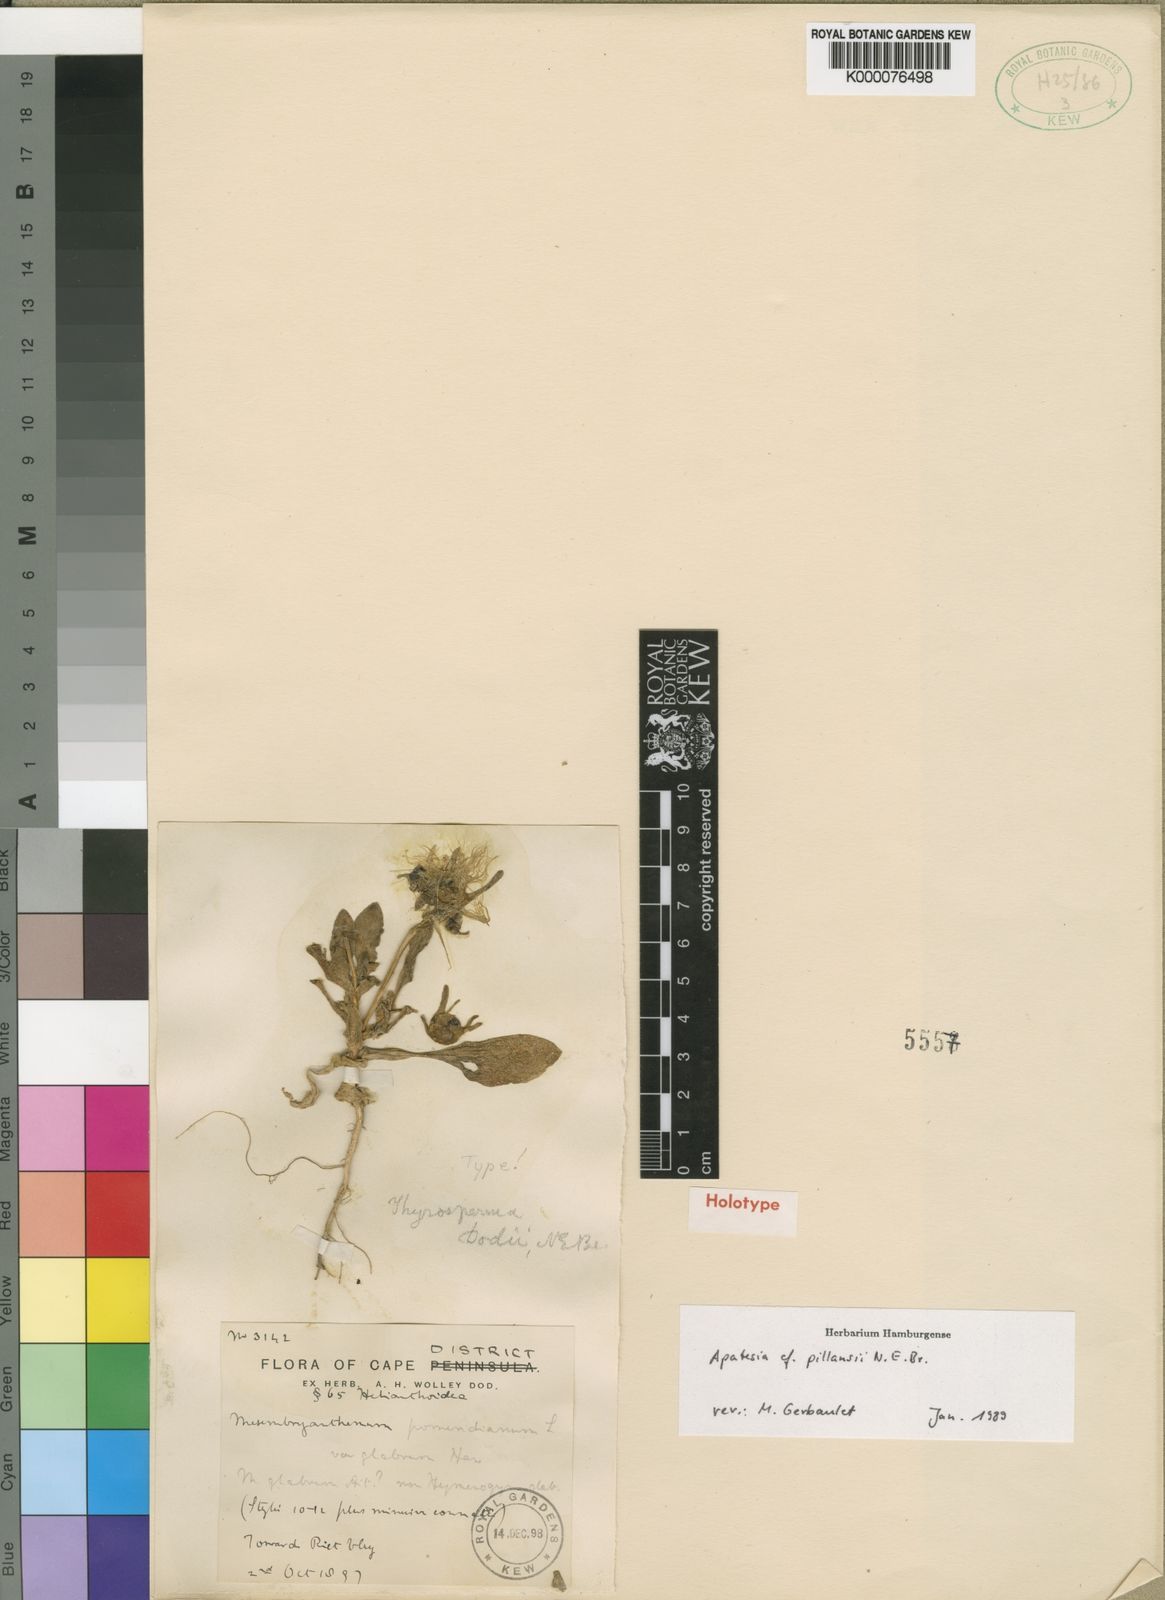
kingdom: Plantae
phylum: Tracheophyta
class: Magnoliopsida
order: Caryophyllales
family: Aizoaceae
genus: Apatesia
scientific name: Apatesia pillansii
